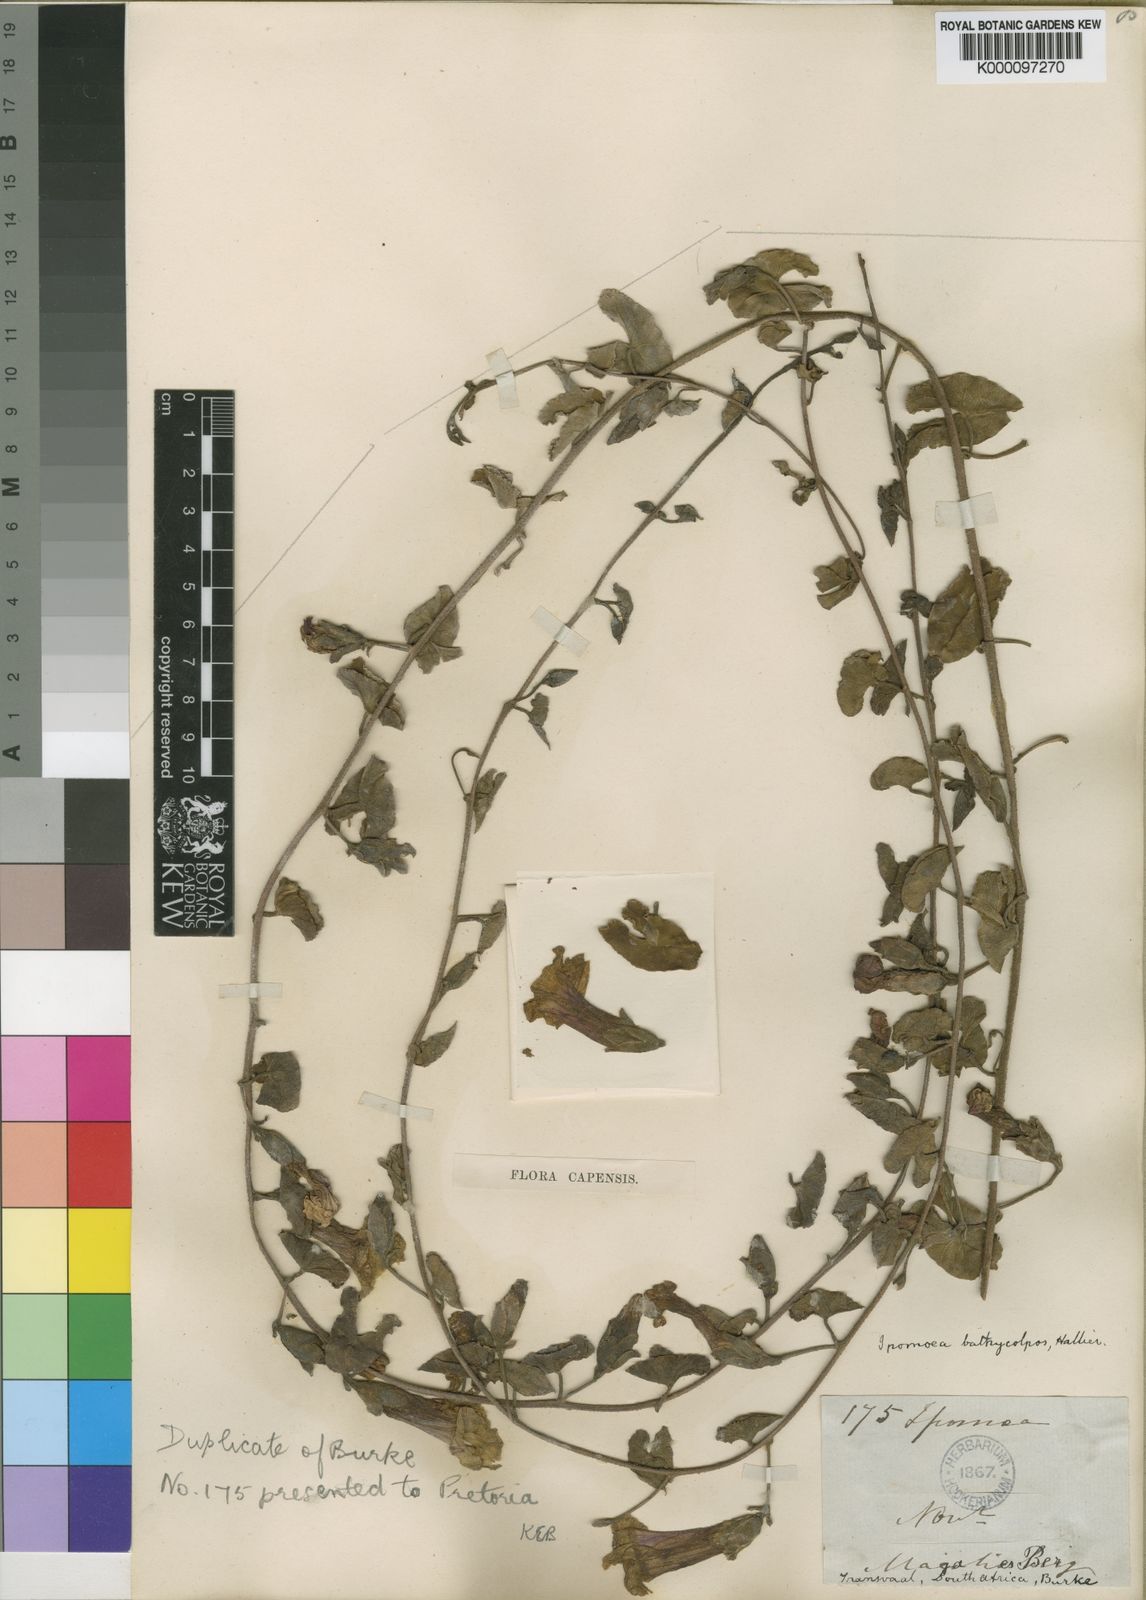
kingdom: Plantae
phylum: Tracheophyta
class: Magnoliopsida
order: Solanales
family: Convolvulaceae
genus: Ipomoea
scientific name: Ipomoea bathycolpos
